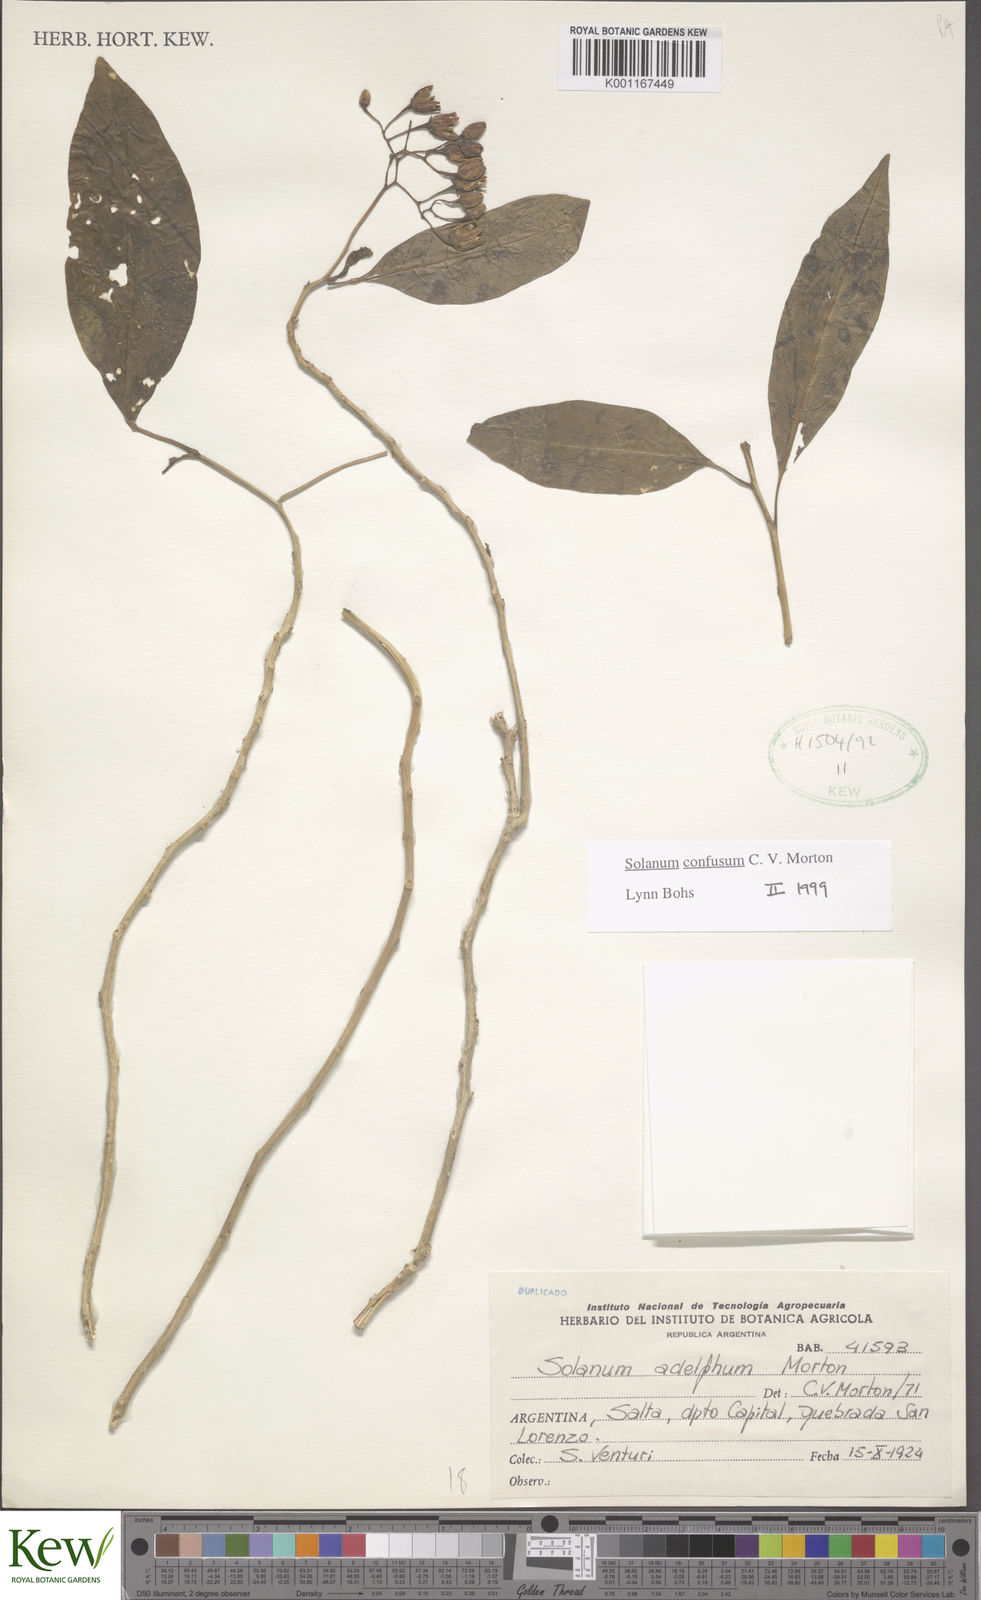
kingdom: Plantae
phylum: Tracheophyta
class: Magnoliopsida
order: Solanales
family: Solanaceae
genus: Solanum
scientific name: Solanum confusum
